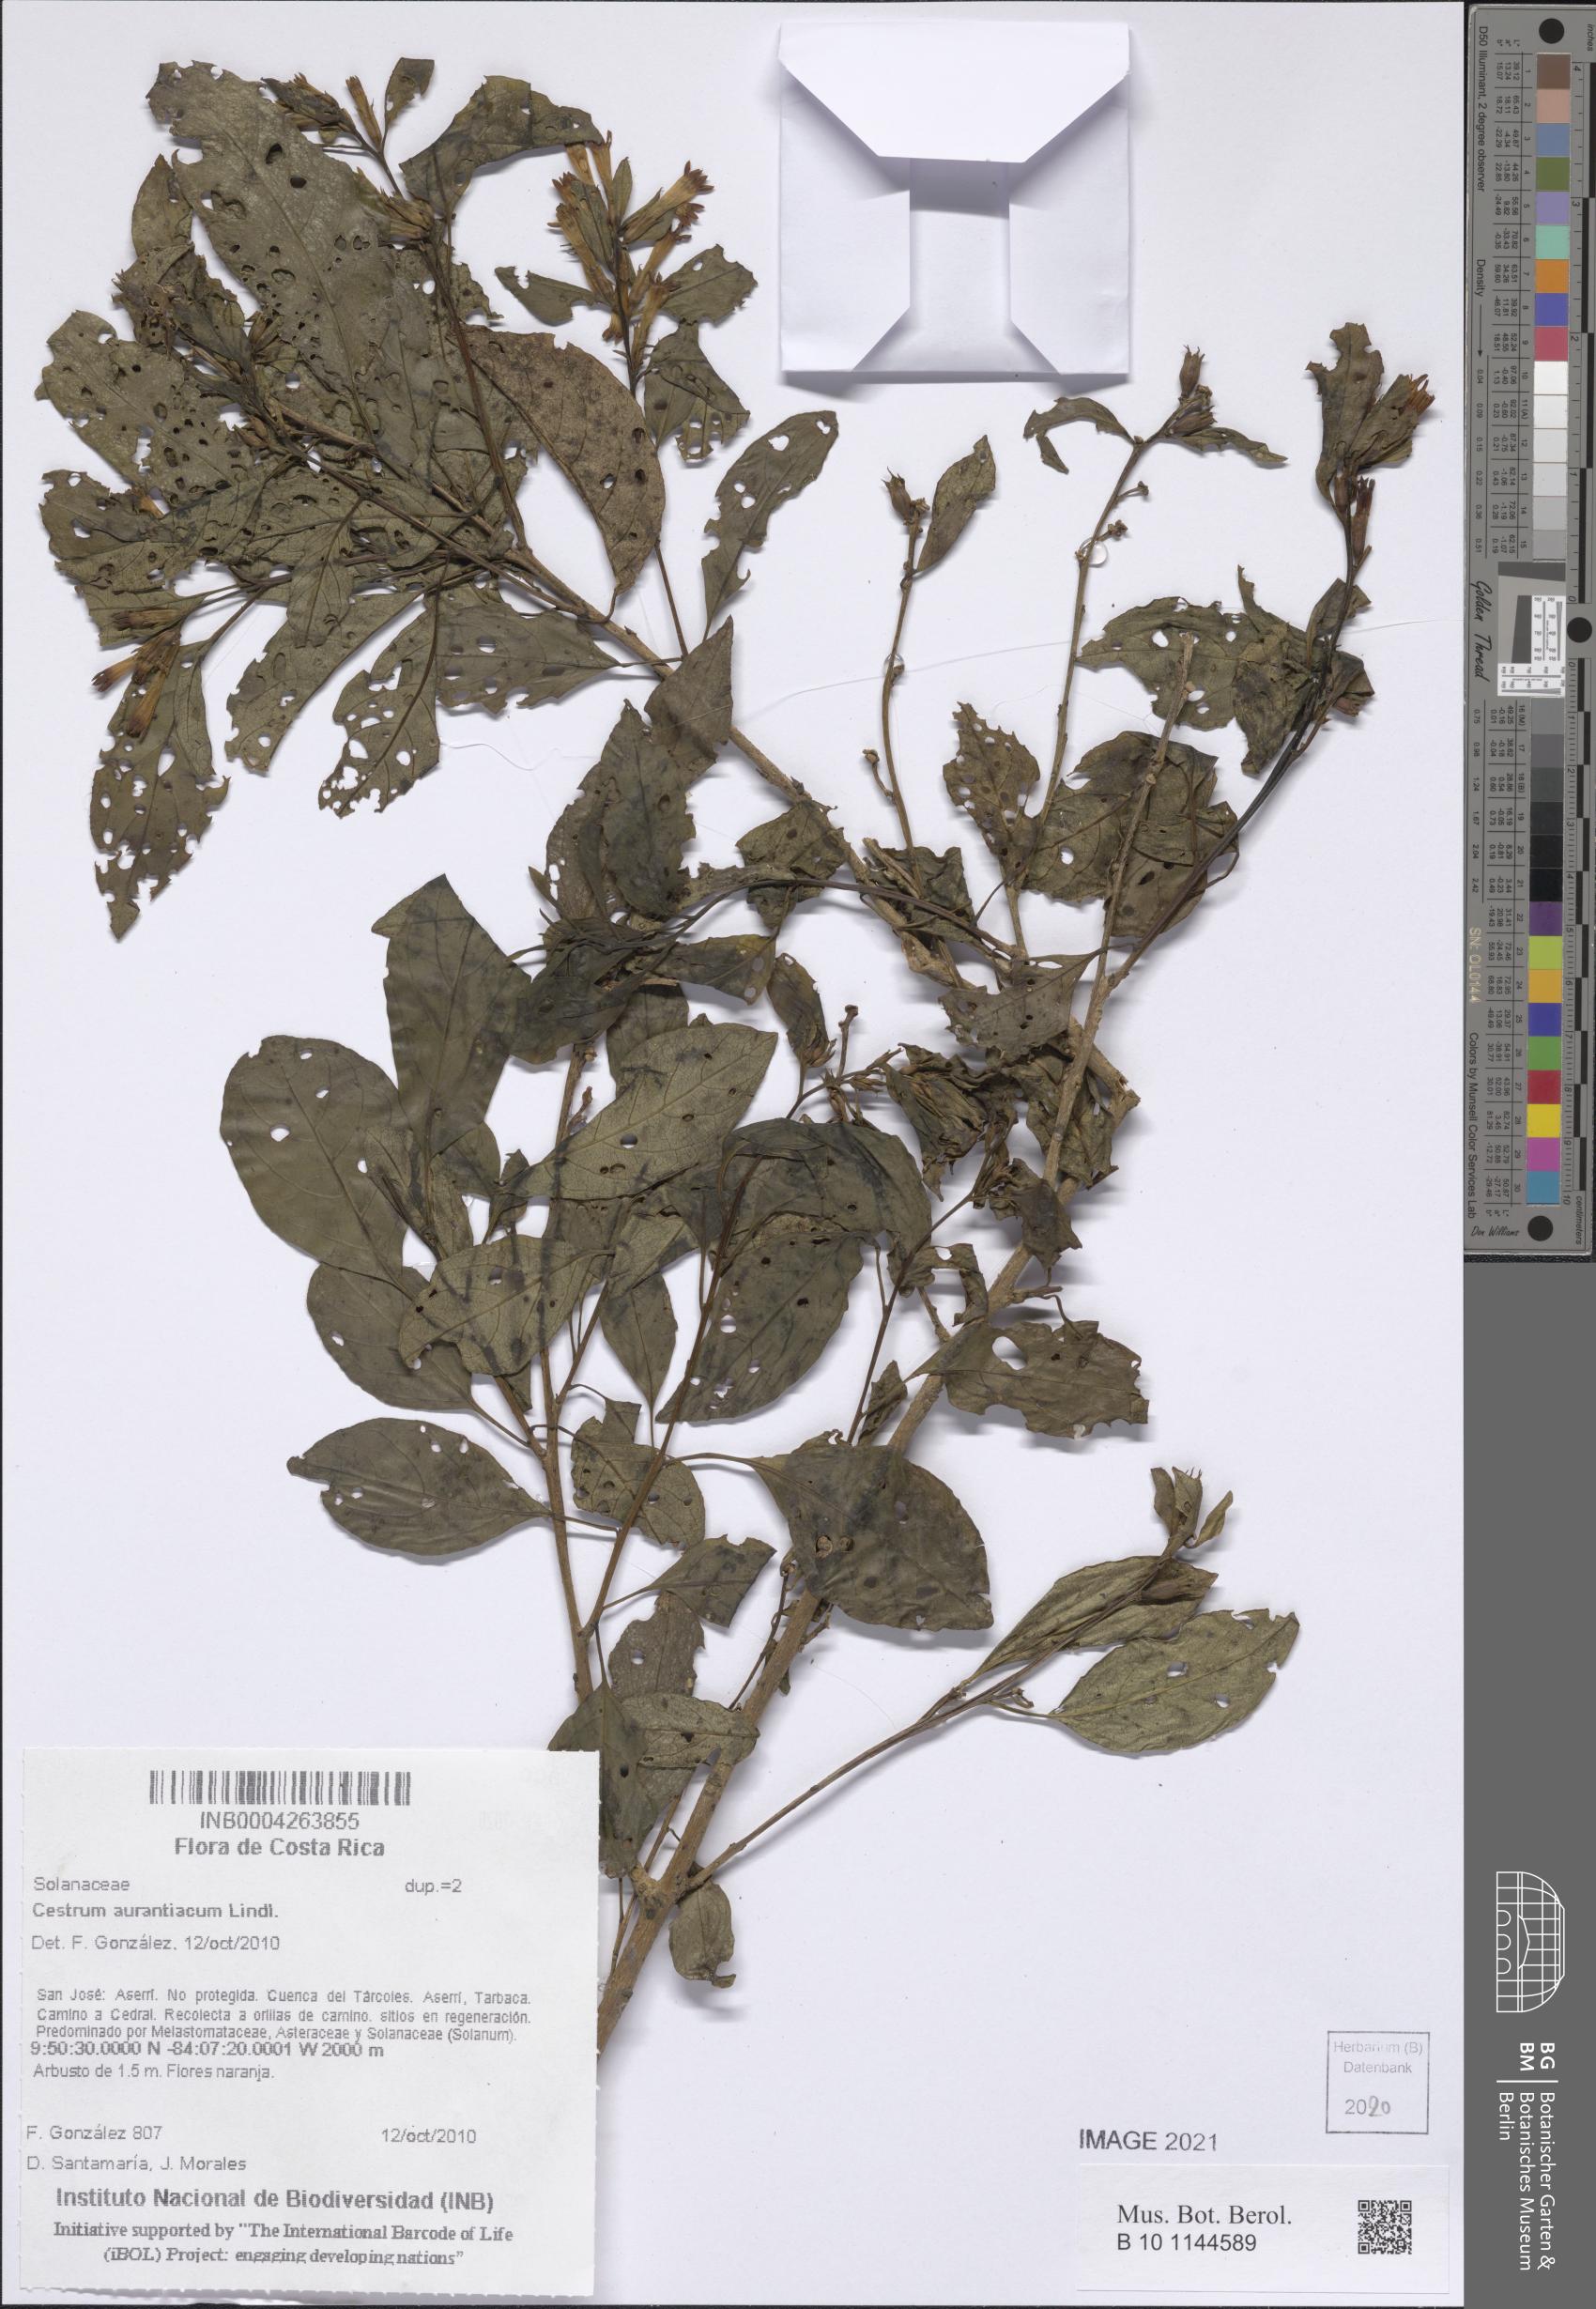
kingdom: Plantae
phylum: Tracheophyta
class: Magnoliopsida
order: Solanales
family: Solanaceae
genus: Cestrum
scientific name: Cestrum aurantiacum
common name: Orange cestrum
